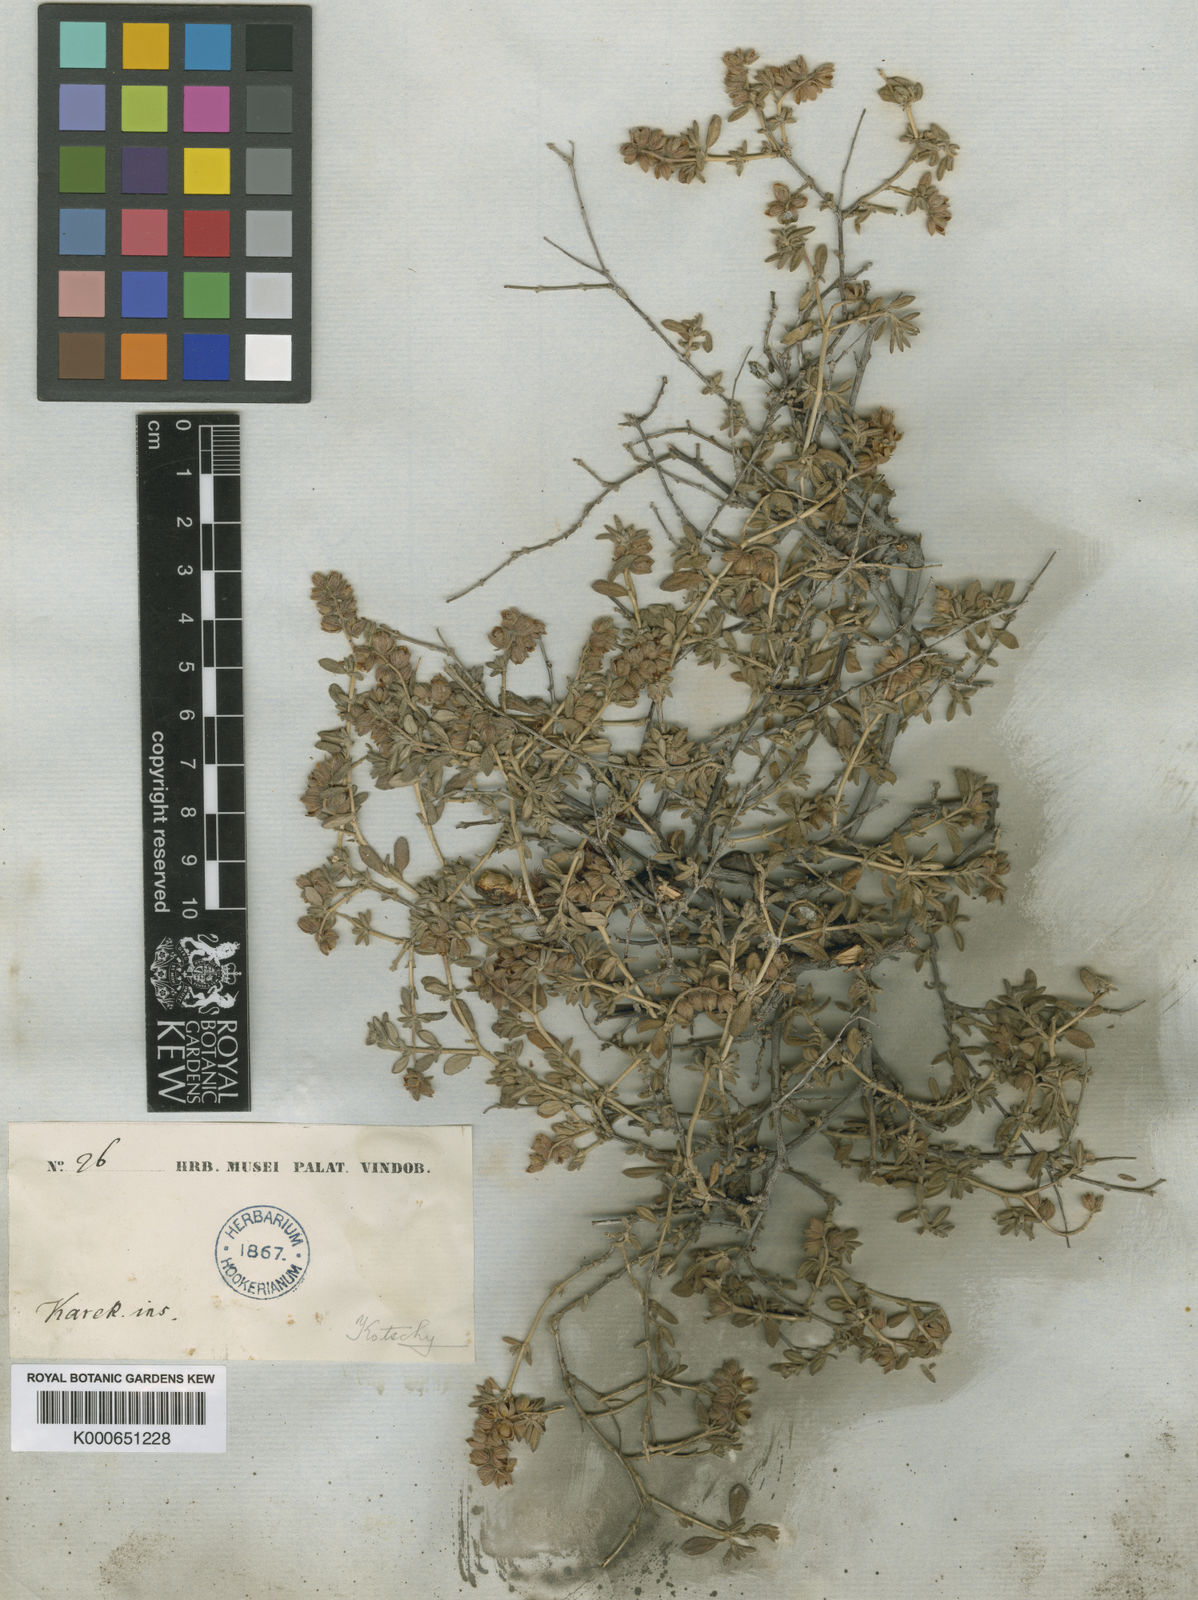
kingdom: Plantae
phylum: Tracheophyta
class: Magnoliopsida
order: Malvales
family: Cistaceae
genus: Helianthemum
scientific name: Helianthemum
